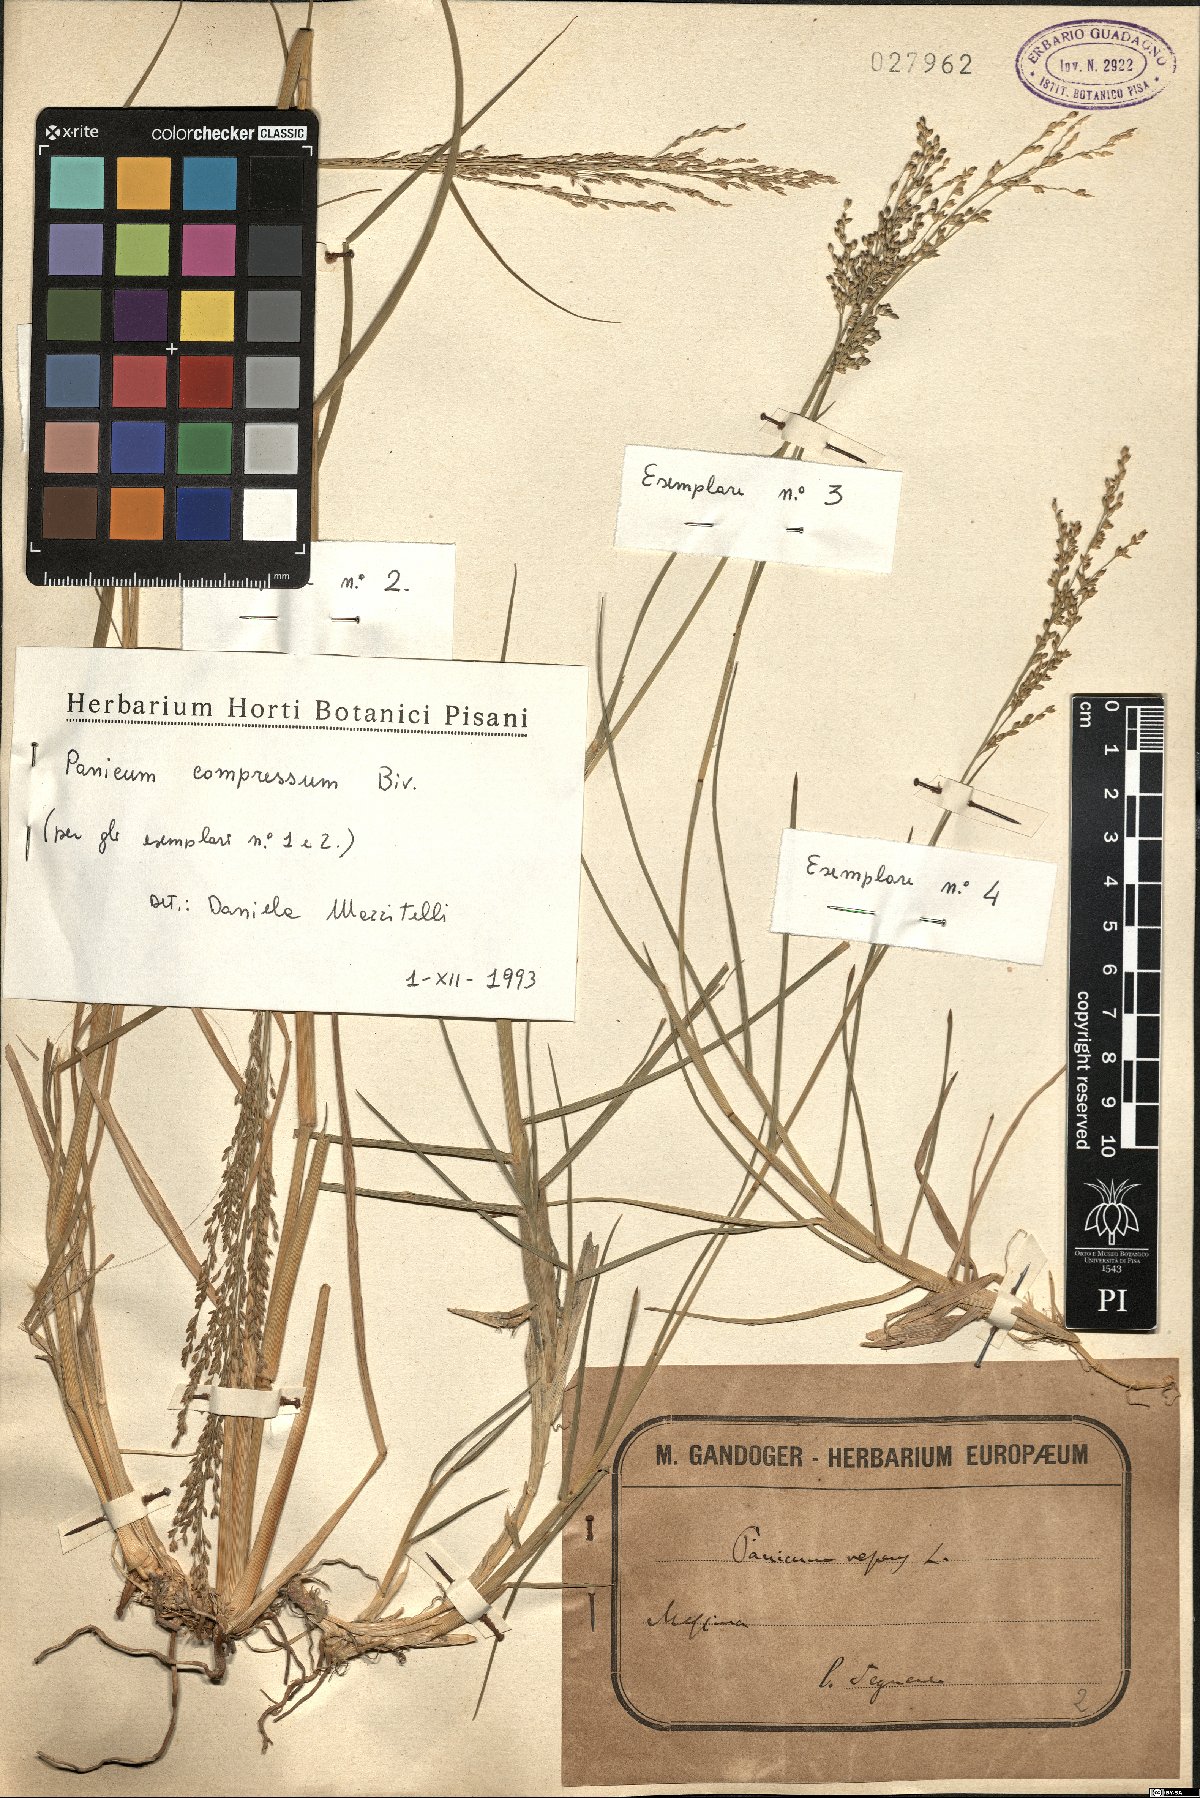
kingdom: Plantae
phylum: Tracheophyta
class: Liliopsida
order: Poales
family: Poaceae
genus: Megathyrsus
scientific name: Megathyrsus maximus
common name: Guineagrass
